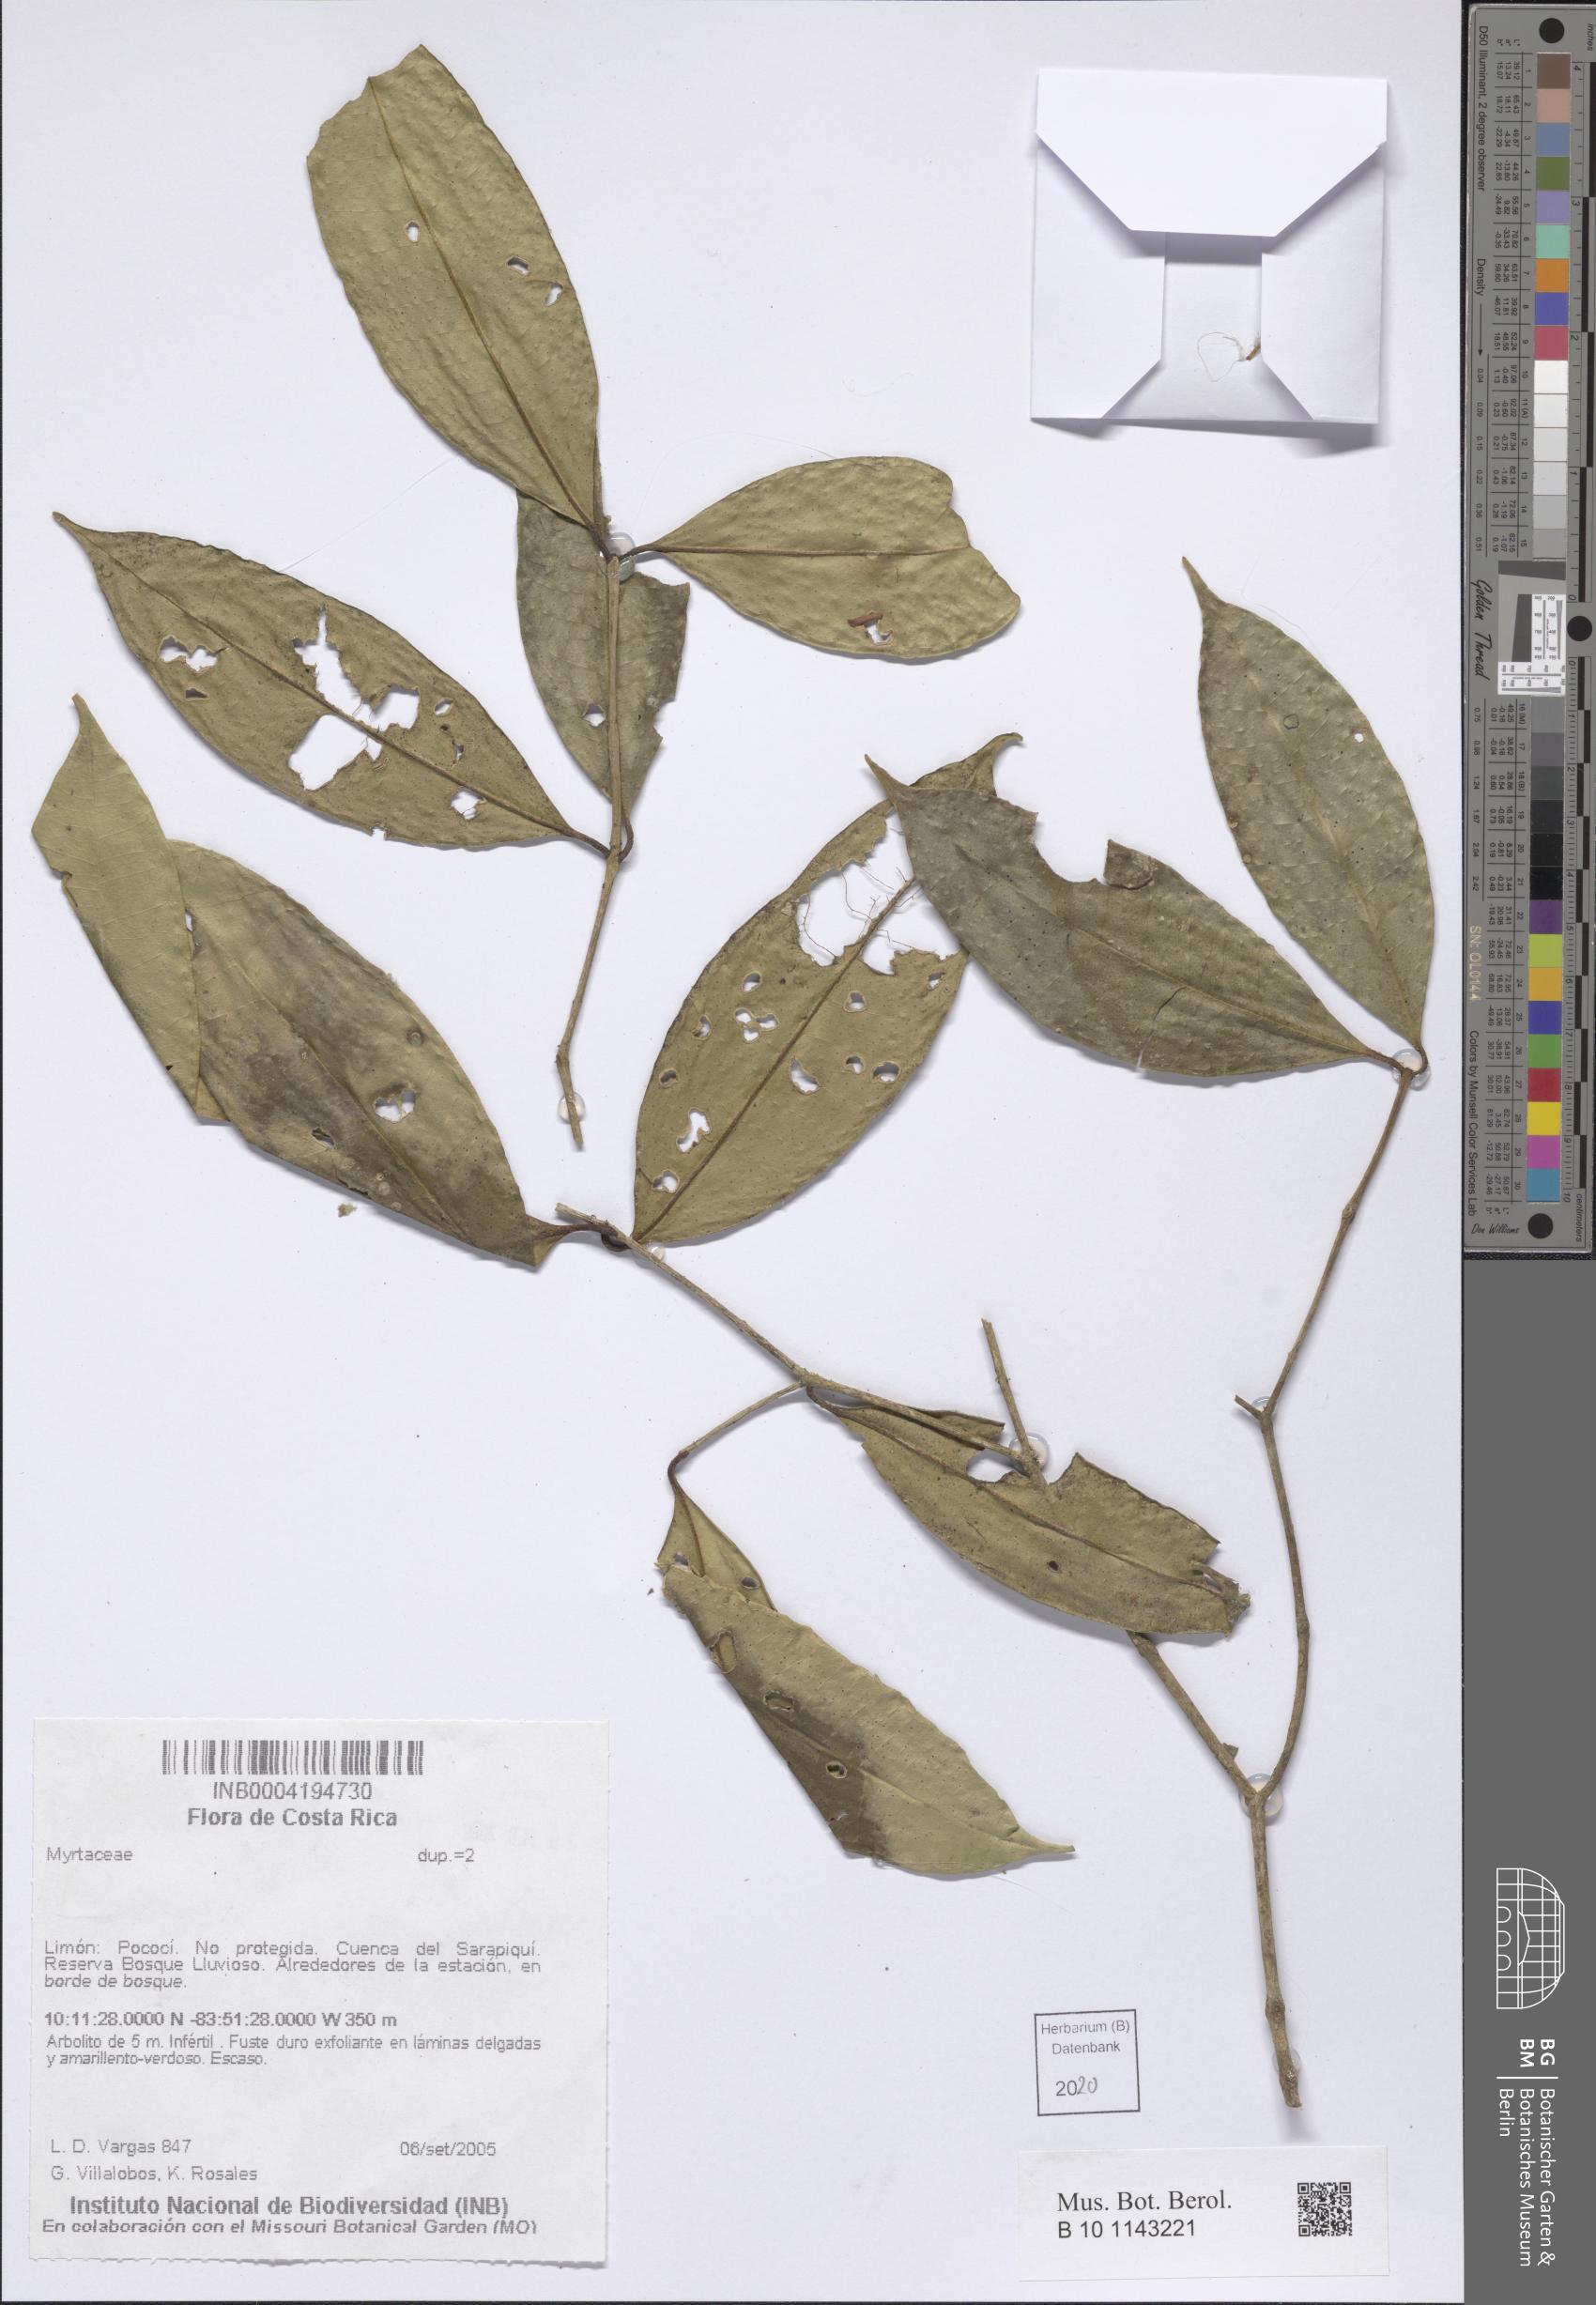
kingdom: Plantae
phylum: Tracheophyta
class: Magnoliopsida
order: Myrtales
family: Myrtaceae
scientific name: Myrtaceae
